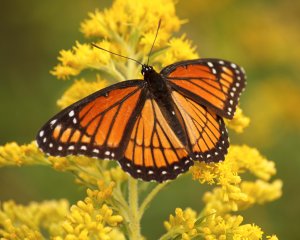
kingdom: Animalia
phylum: Arthropoda
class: Insecta
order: Lepidoptera
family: Nymphalidae
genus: Limenitis
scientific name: Limenitis archippus
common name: Viceroy
